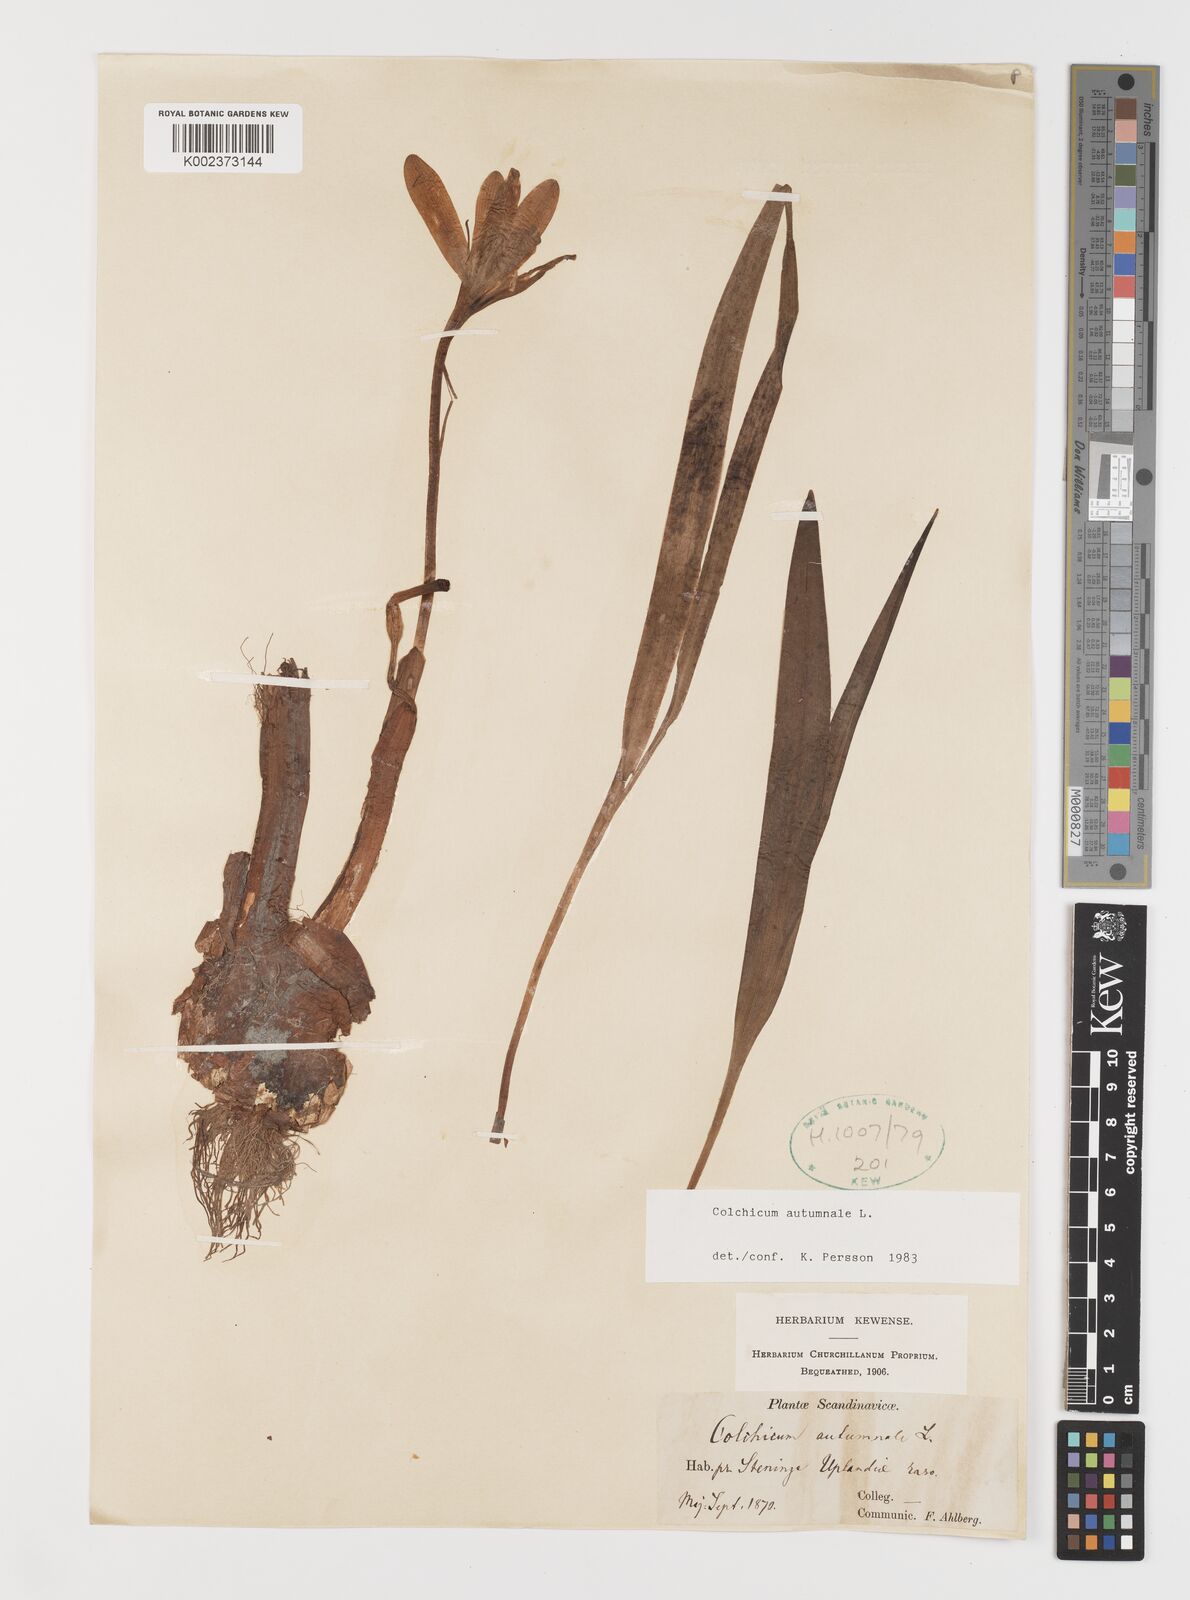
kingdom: Plantae
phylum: Tracheophyta
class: Liliopsida
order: Liliales
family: Colchicaceae
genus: Colchicum
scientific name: Colchicum autumnale
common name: Autumn crocus
